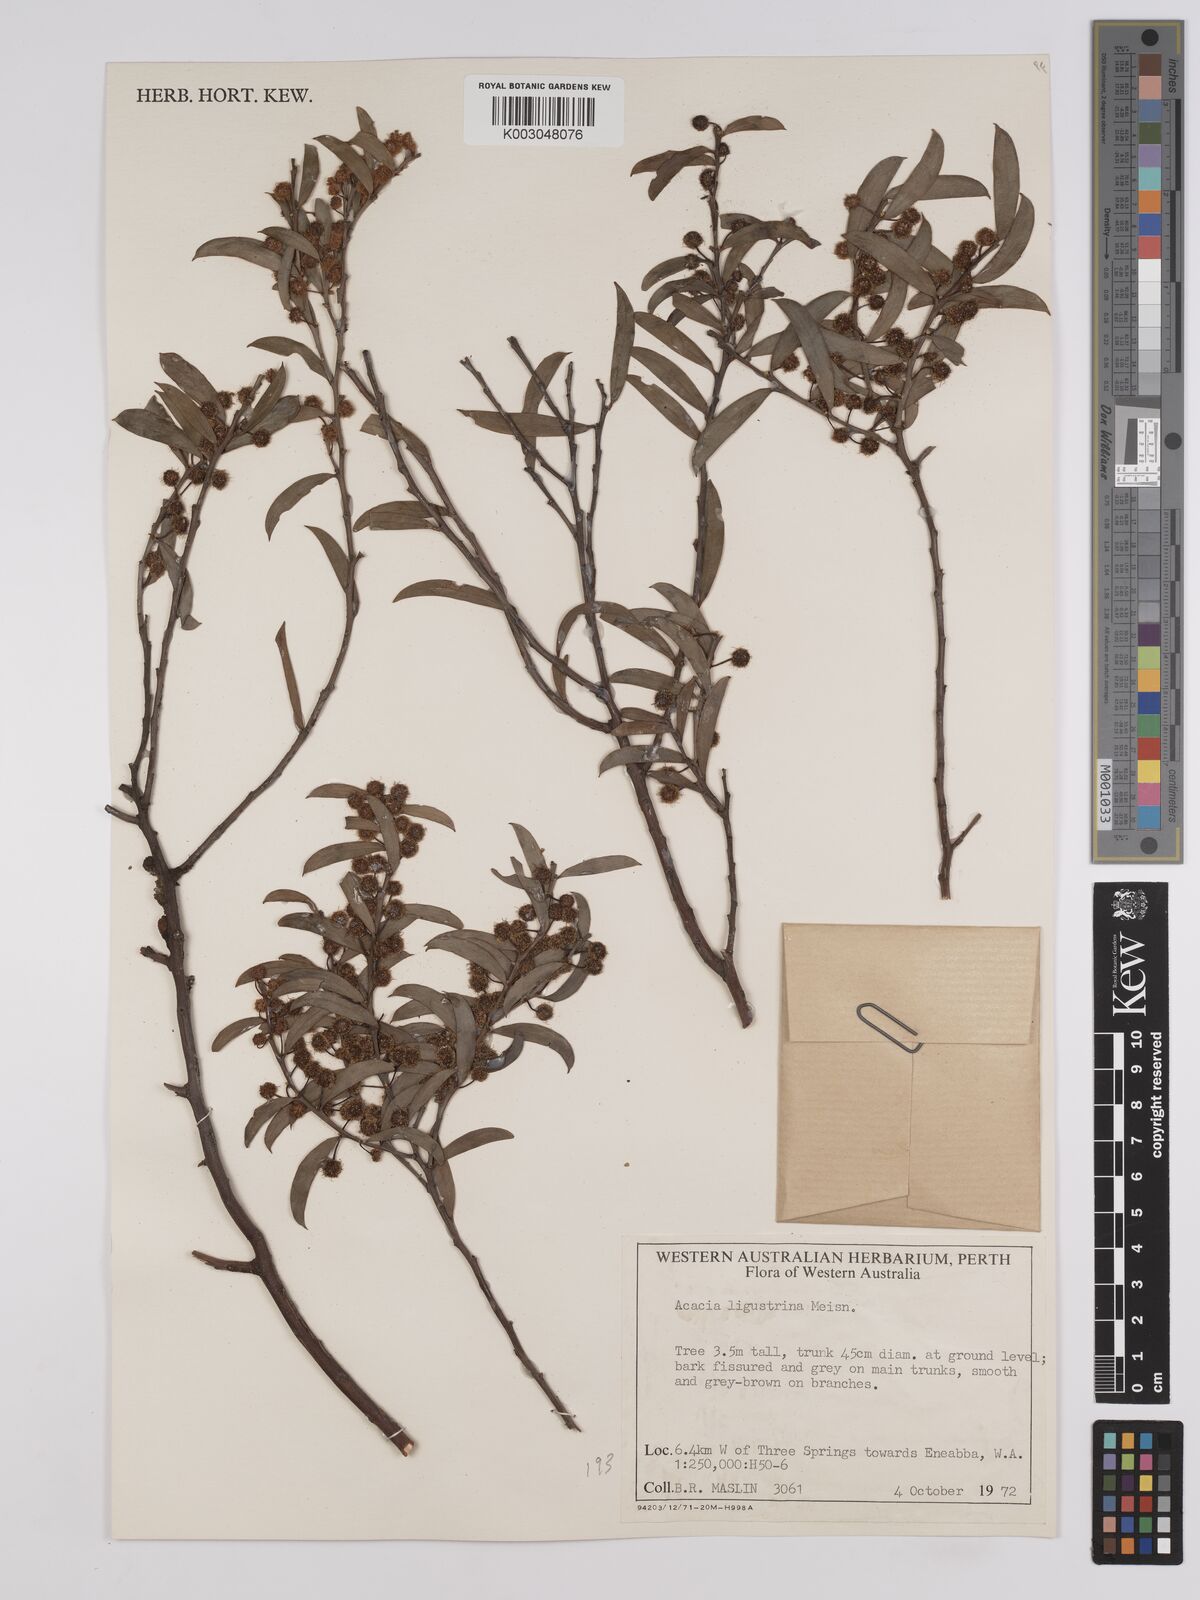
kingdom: Plantae
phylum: Tracheophyta
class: Magnoliopsida
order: Fabales
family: Fabaceae
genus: Acacia
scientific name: Acacia ligustrina
